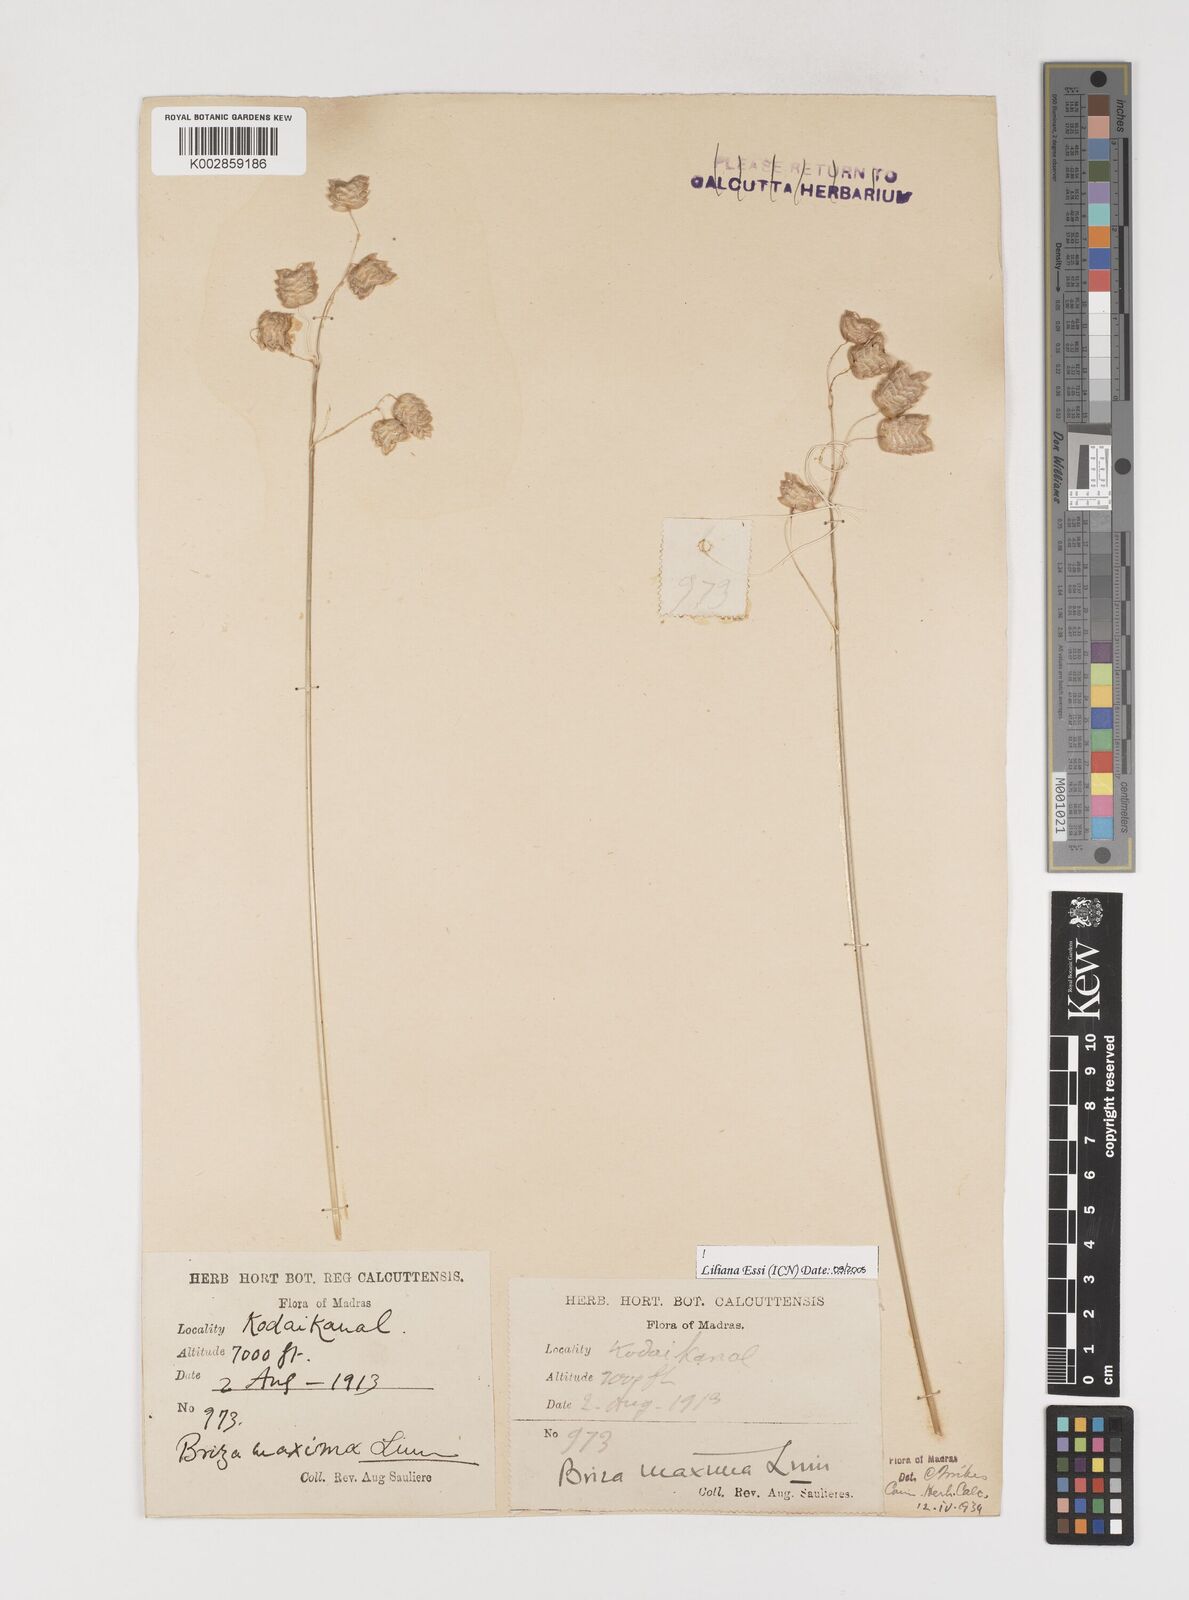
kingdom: Plantae
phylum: Tracheophyta
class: Liliopsida
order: Poales
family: Poaceae
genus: Briza
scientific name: Briza maxima
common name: Big quakinggrass
